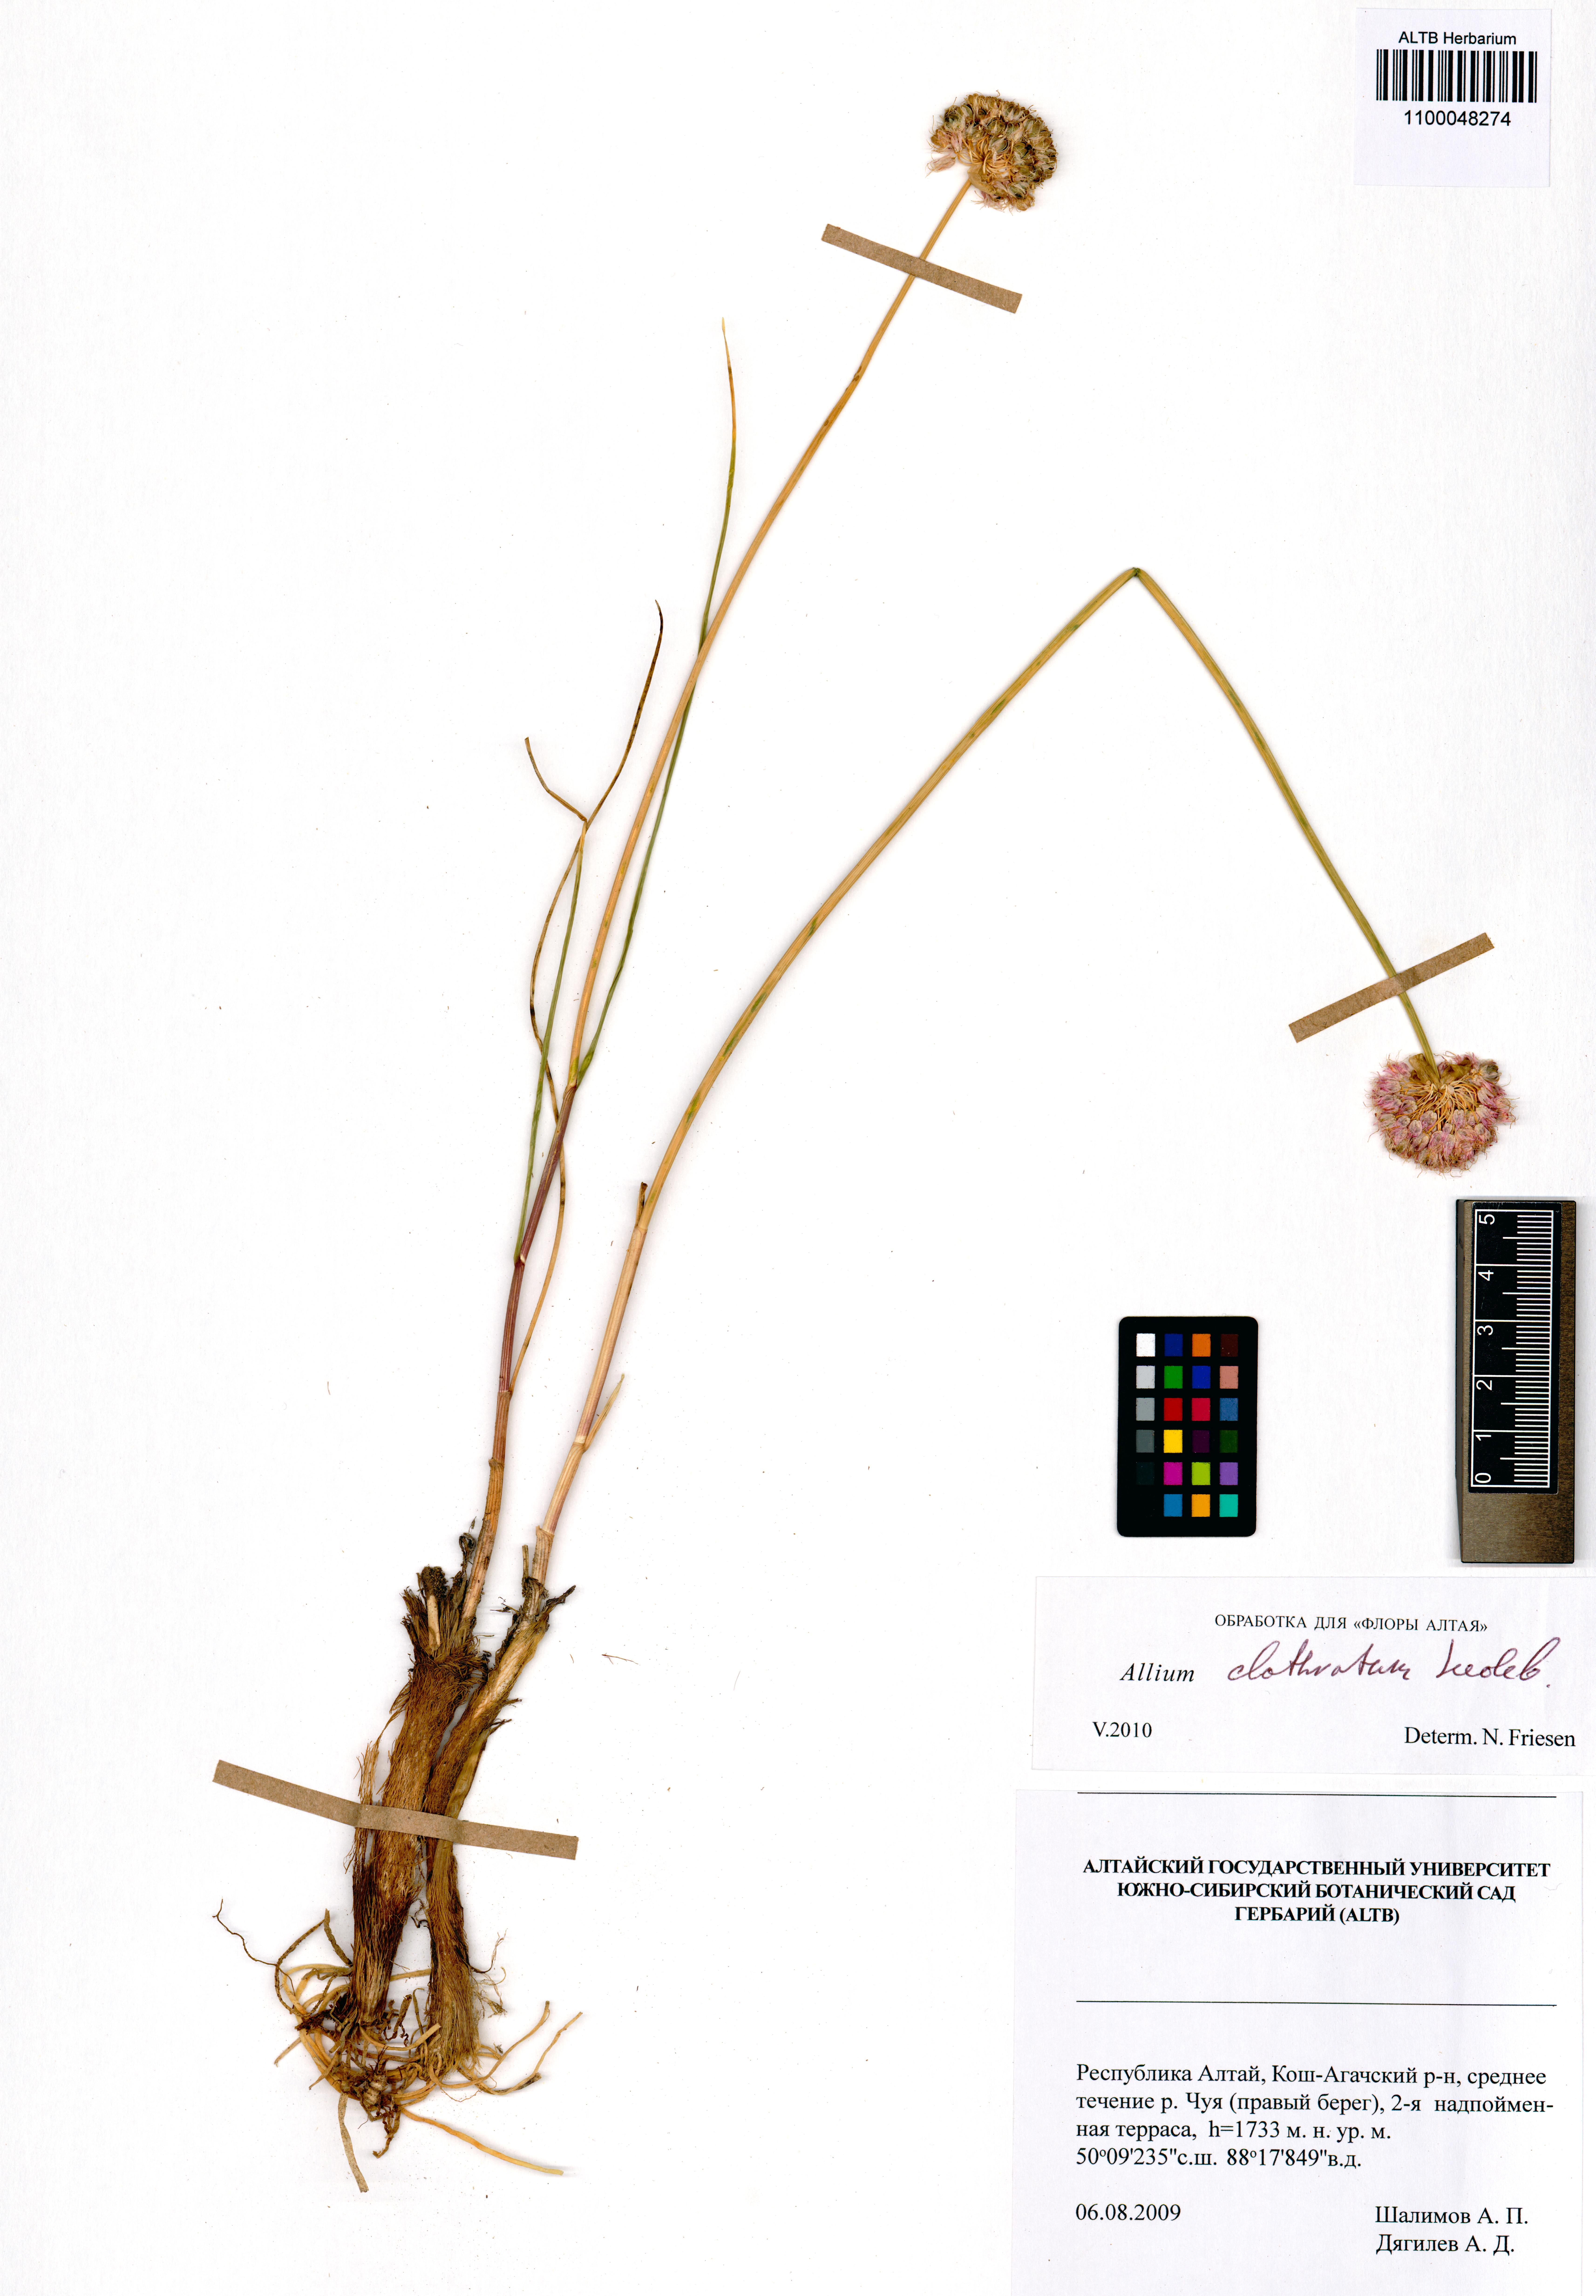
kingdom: Plantae
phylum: Tracheophyta
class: Liliopsida
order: Asparagales
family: Amaryllidaceae
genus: Allium
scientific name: Allium clathratum
